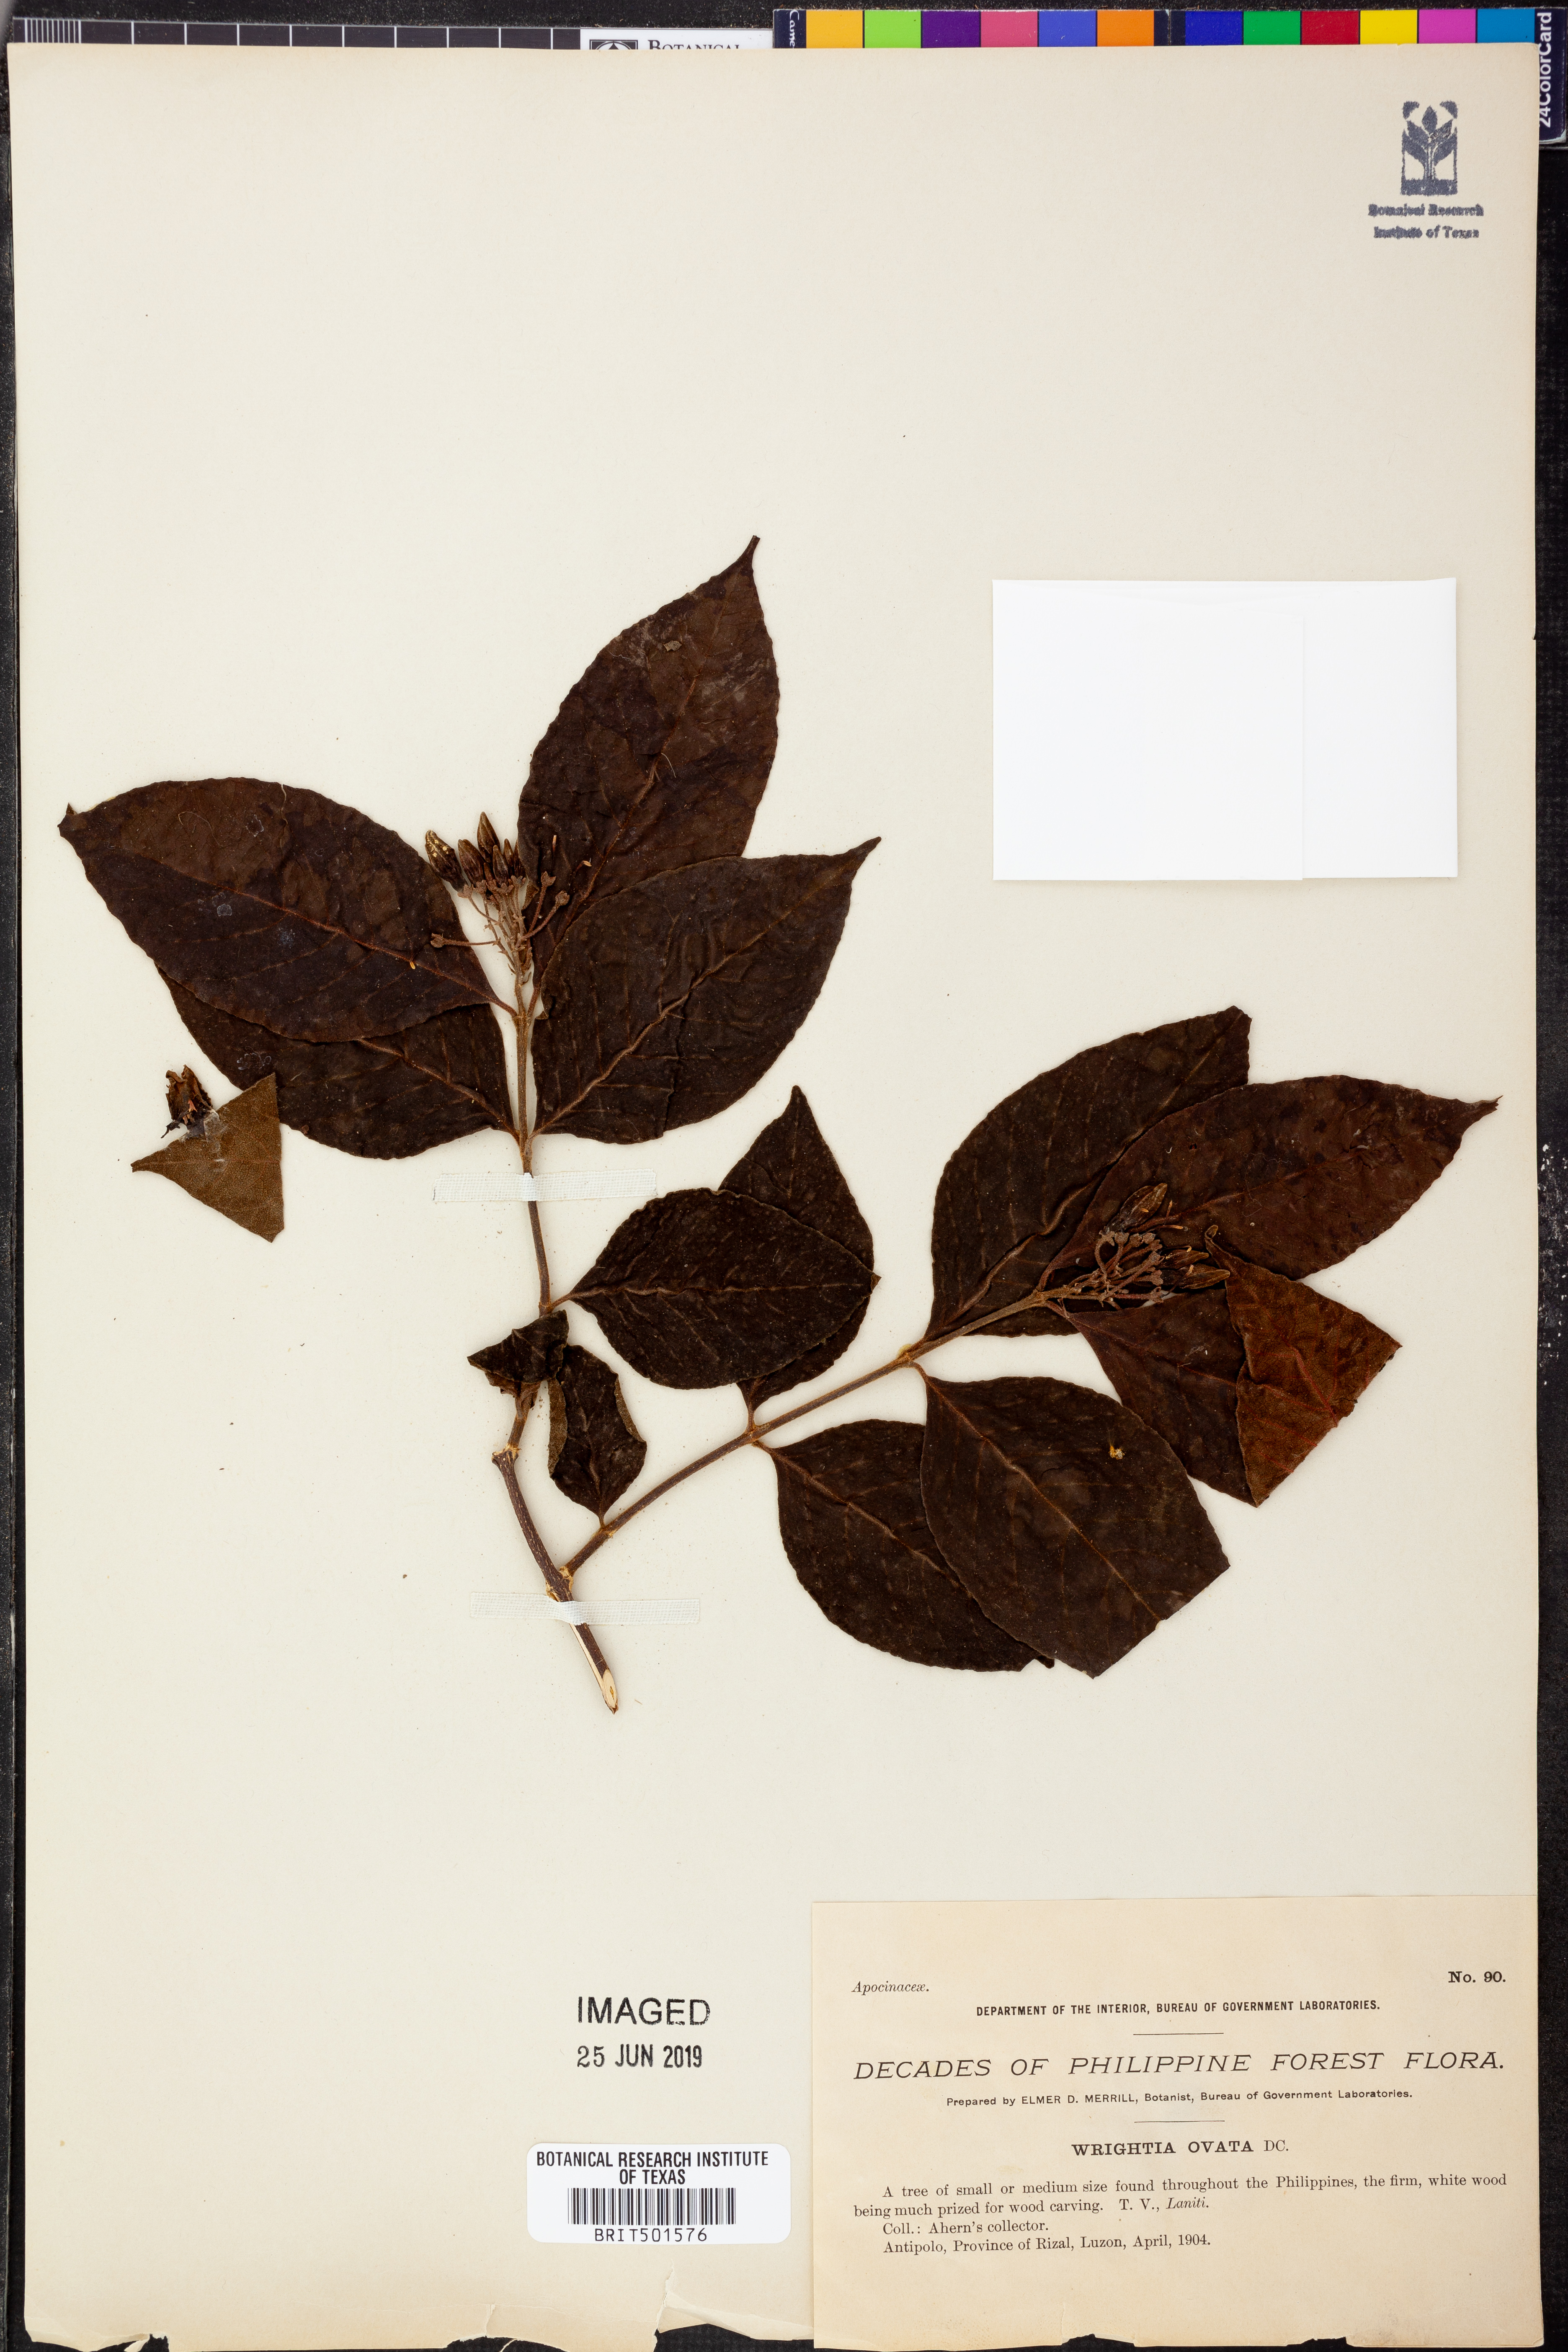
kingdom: Plantae
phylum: Tracheophyta
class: Magnoliopsida
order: Gentianales
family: Apocynaceae
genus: Wrightia
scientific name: Wrightia pubescens
